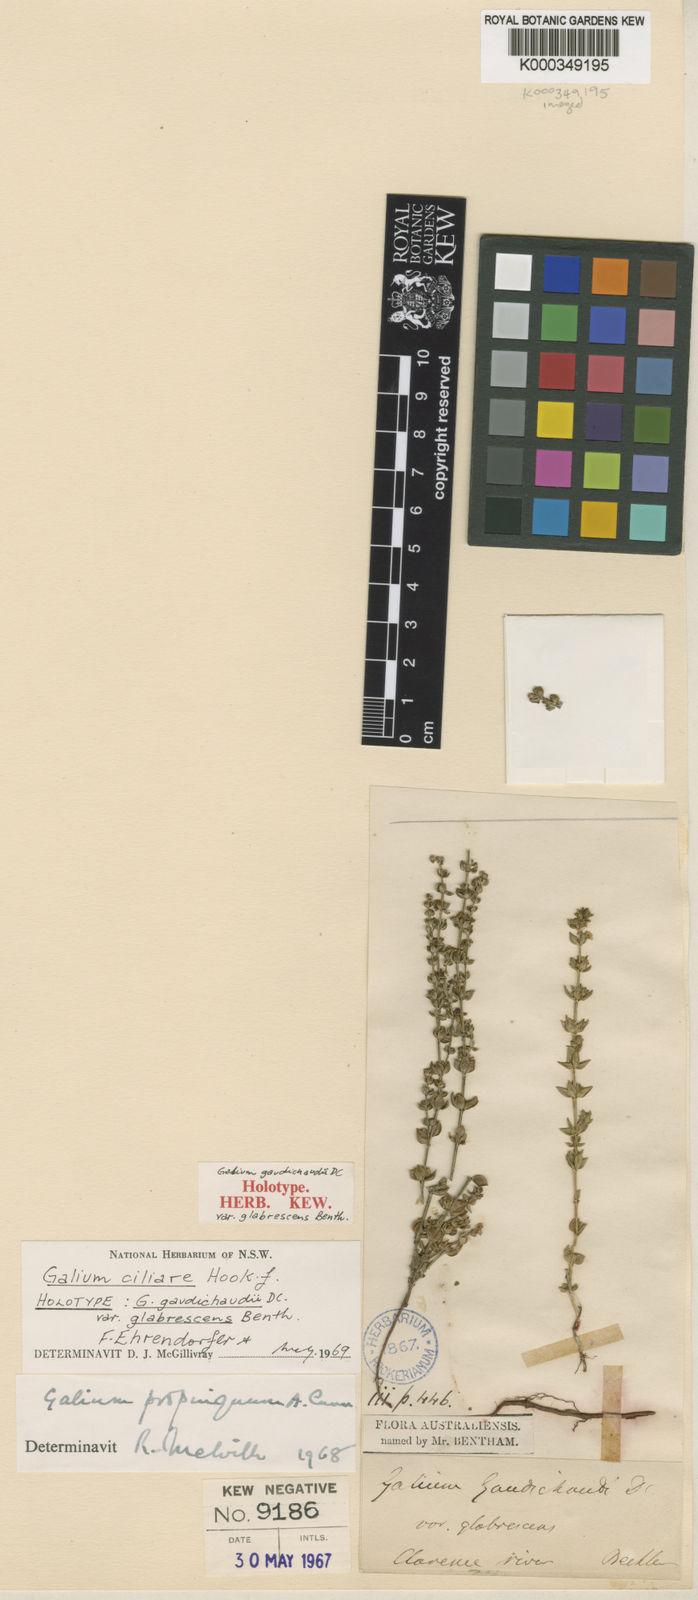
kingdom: Plantae
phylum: Tracheophyta
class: Magnoliopsida
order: Gentianales
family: Rubiaceae
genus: Galium
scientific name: Galium ciliare
